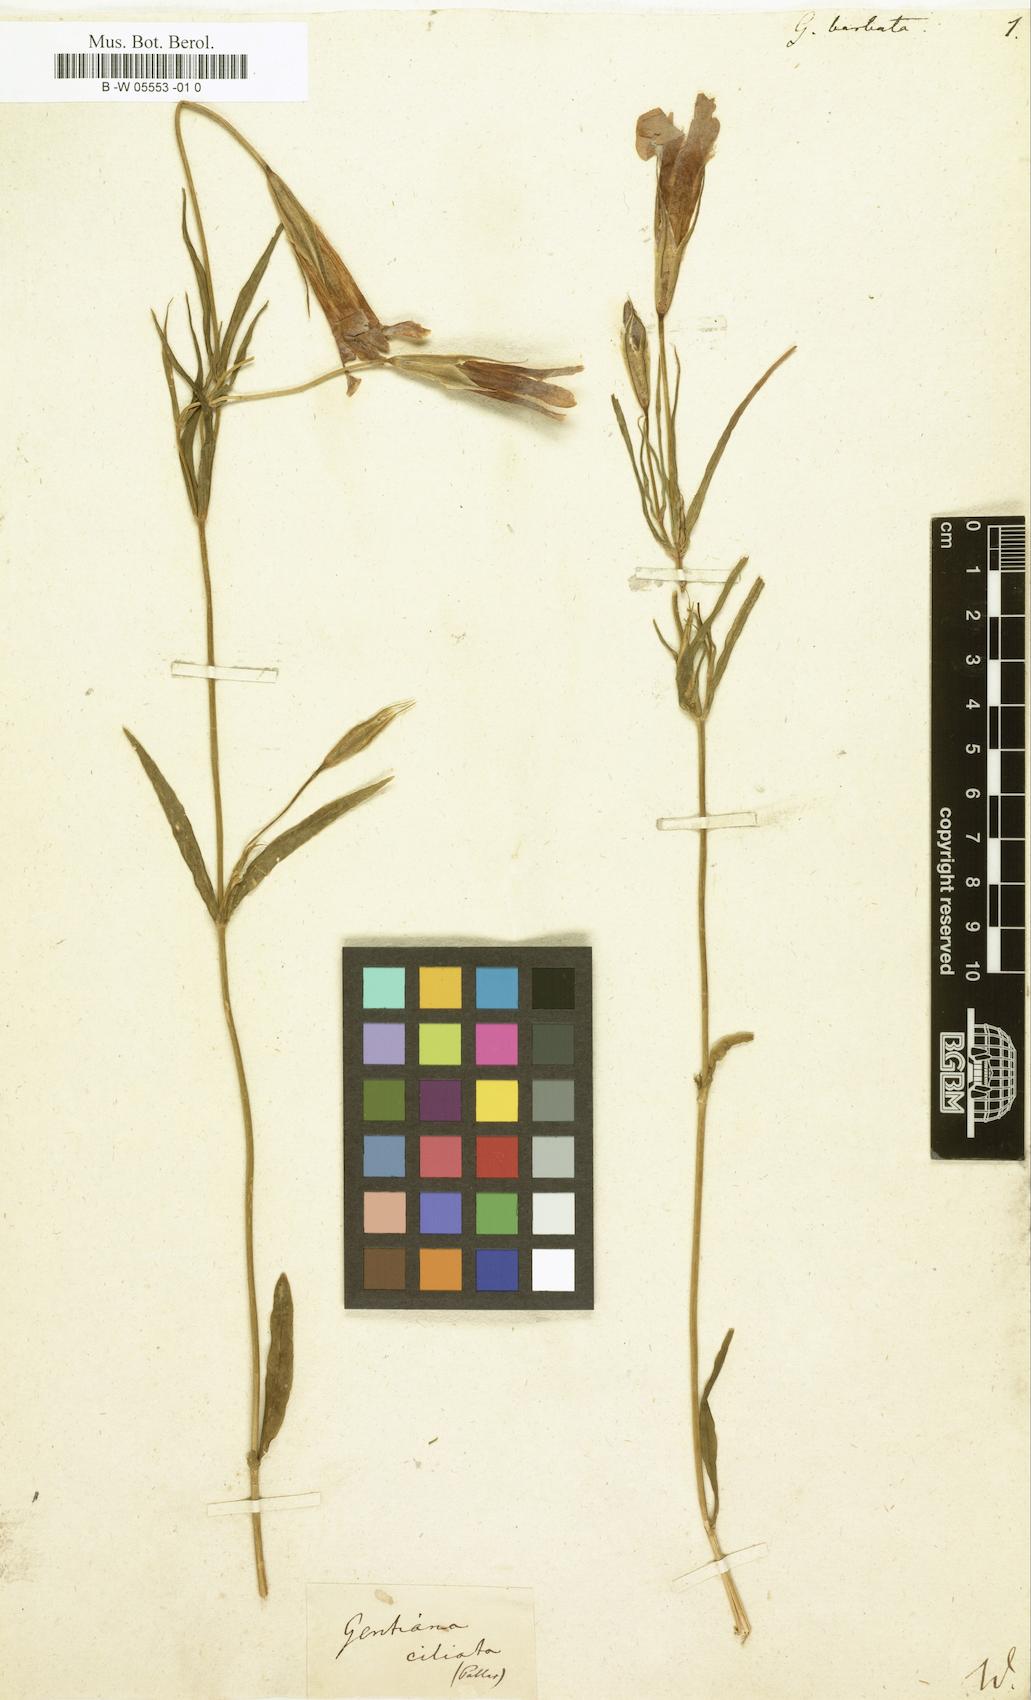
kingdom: Plantae
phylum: Tracheophyta
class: Magnoliopsida
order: Gentianales
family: Gentianaceae
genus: Gentianopsis
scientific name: Gentianopsis barbata
